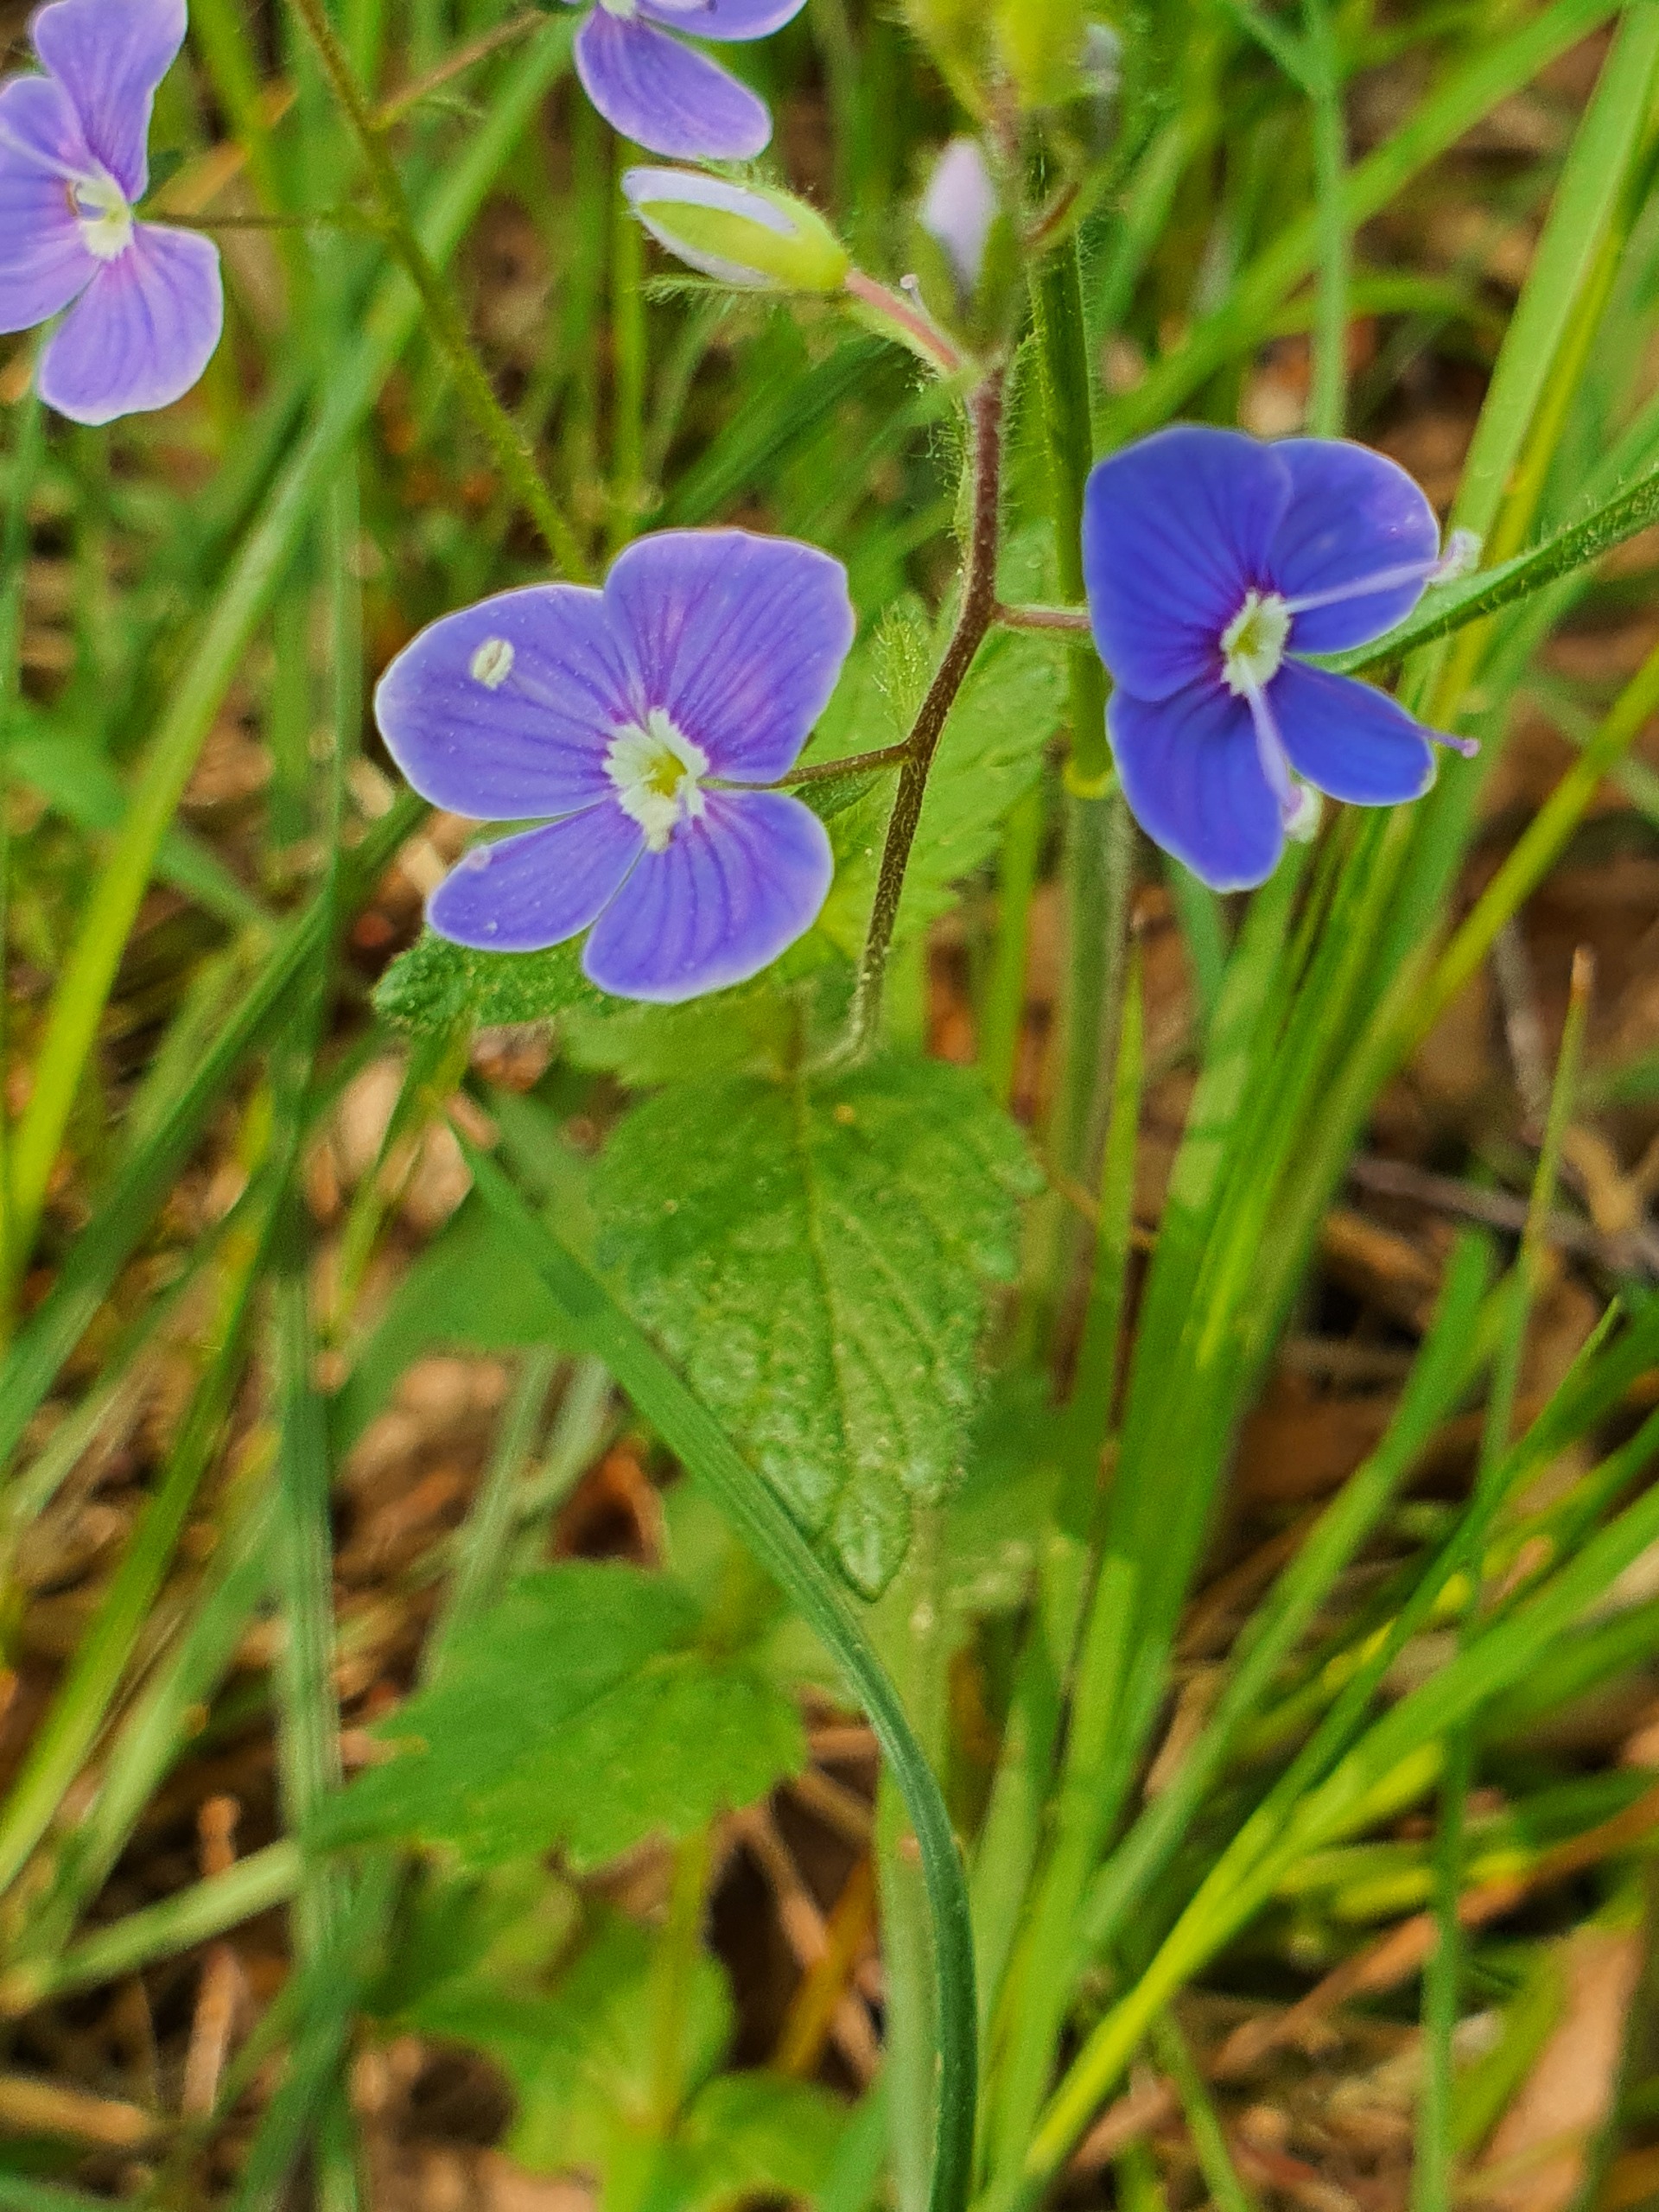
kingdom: Plantae
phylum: Tracheophyta
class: Magnoliopsida
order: Lamiales
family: Plantaginaceae
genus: Veronica
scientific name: Veronica chamaedrys
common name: Tveskægget ærenpris
